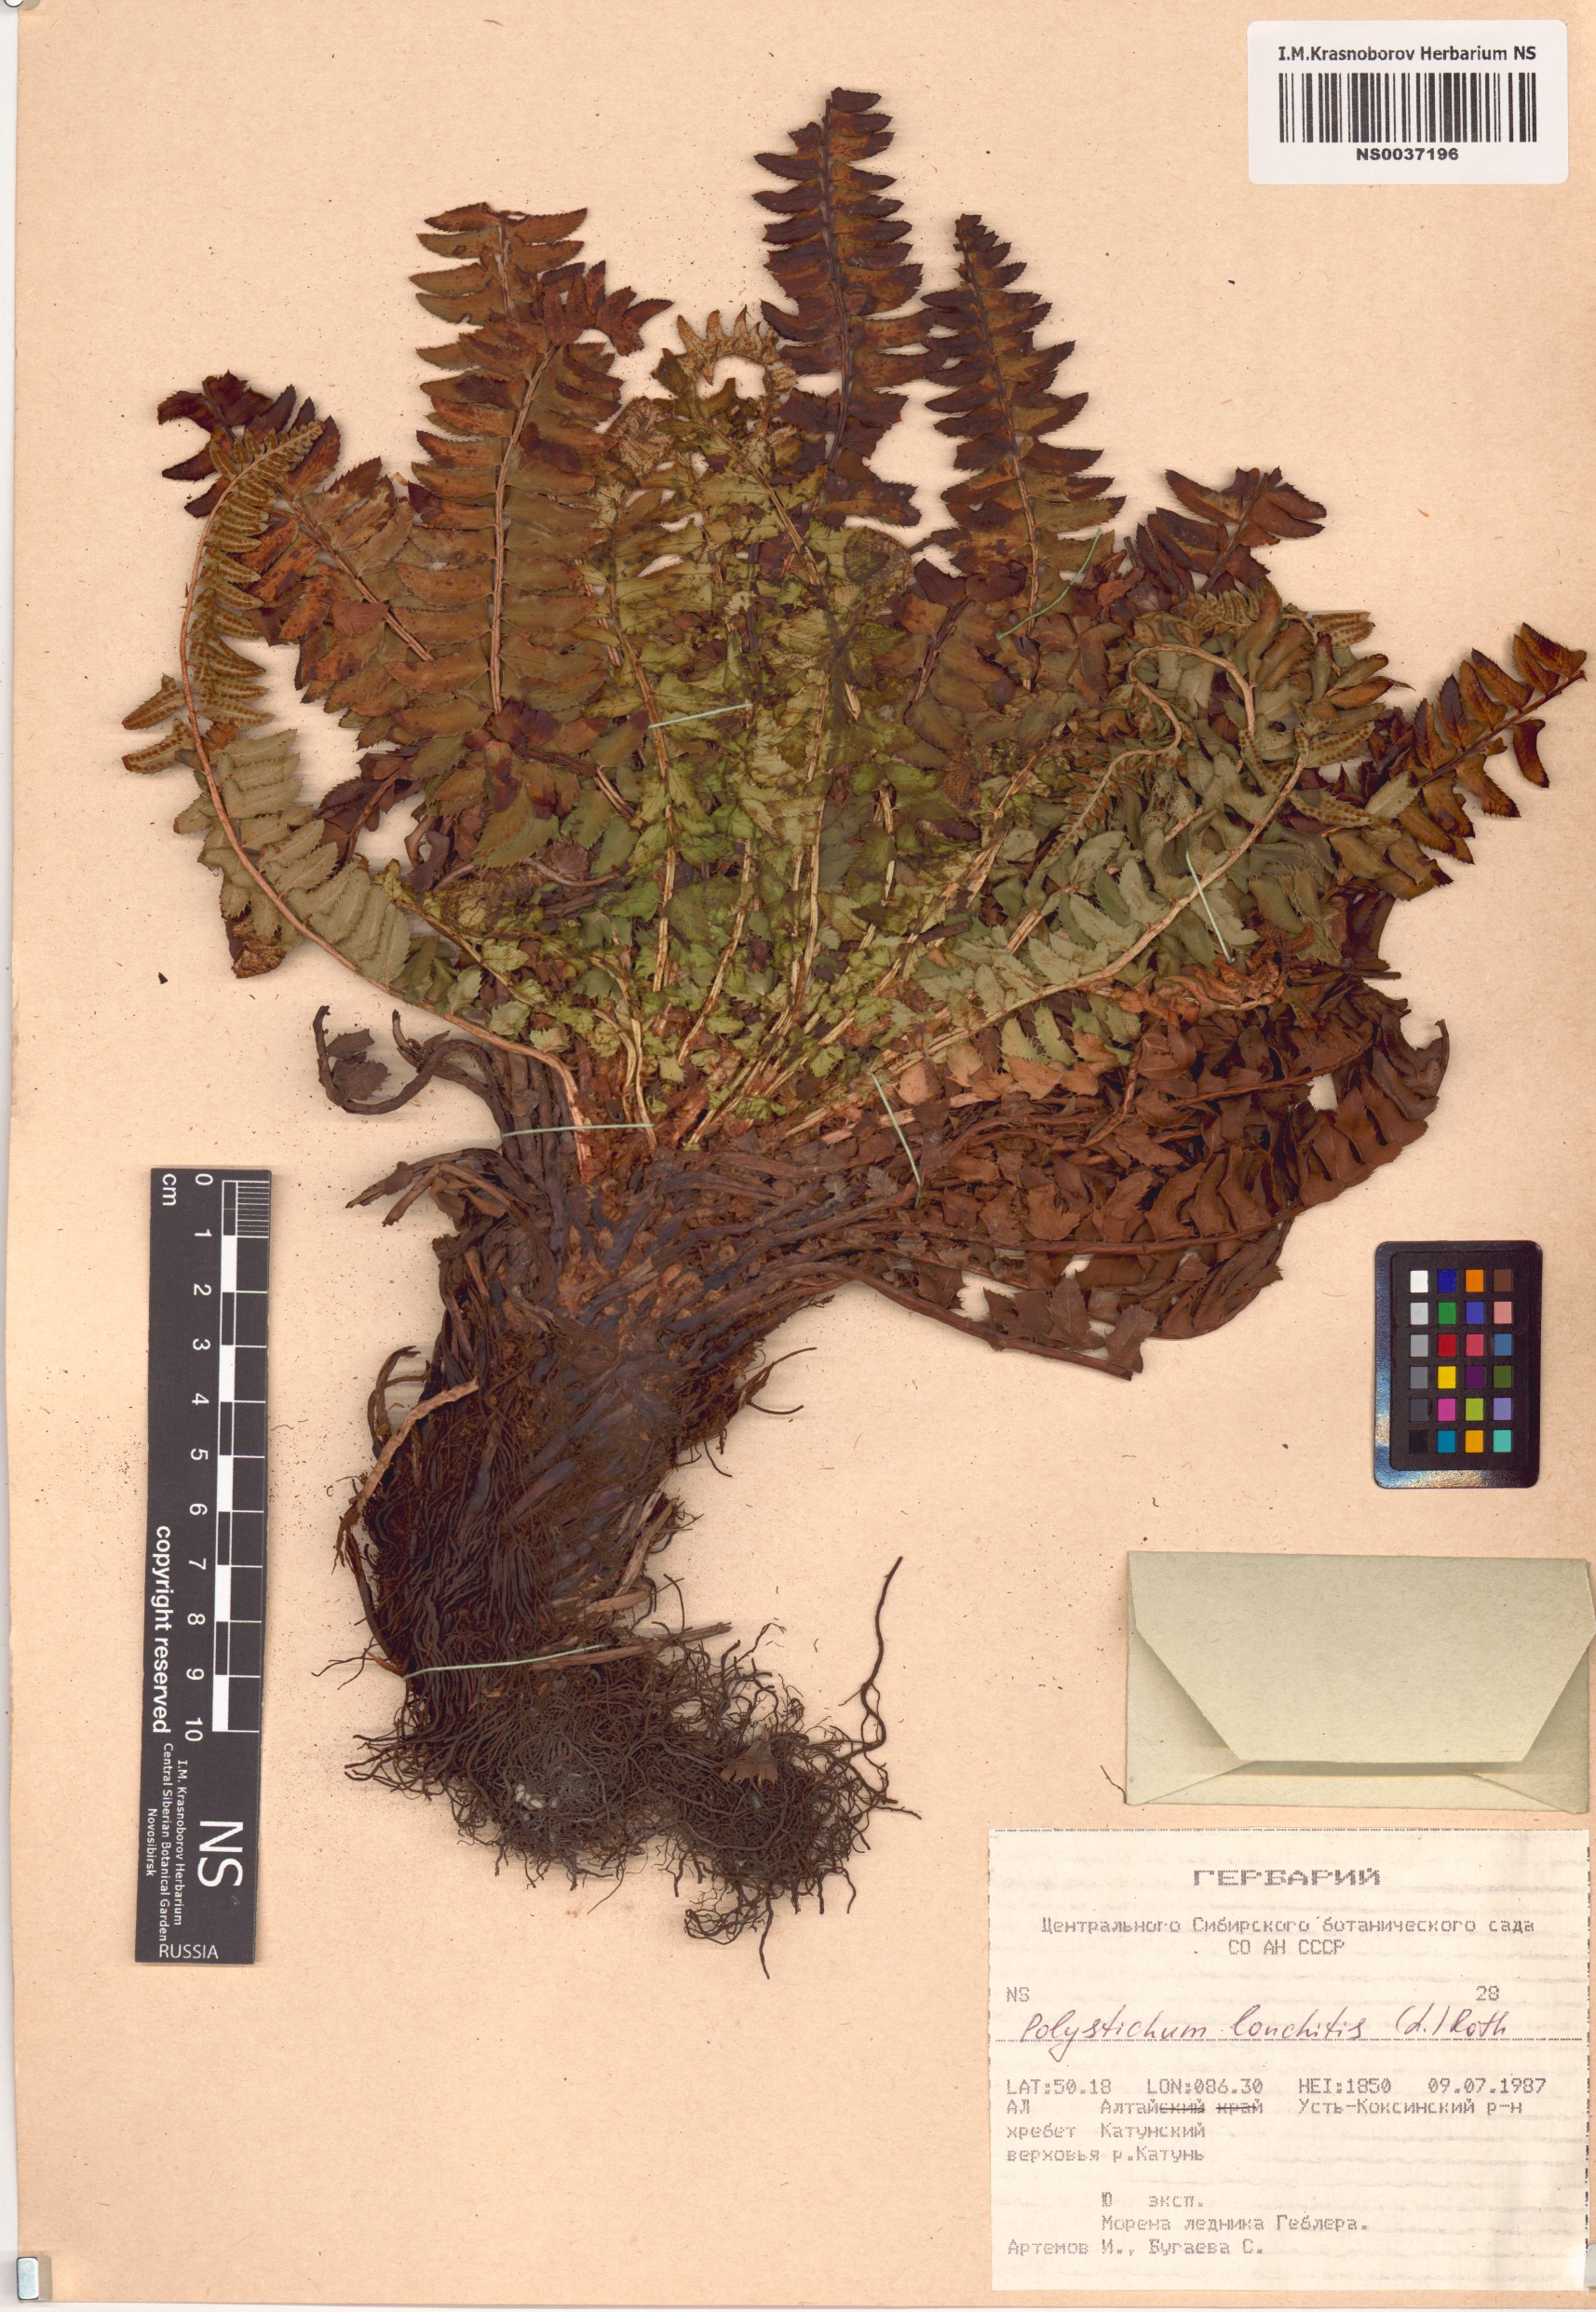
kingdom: Plantae
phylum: Tracheophyta
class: Polypodiopsida
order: Polypodiales
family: Dryopteridaceae
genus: Polystichum
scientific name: Polystichum lonchitis
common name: Holly fern
